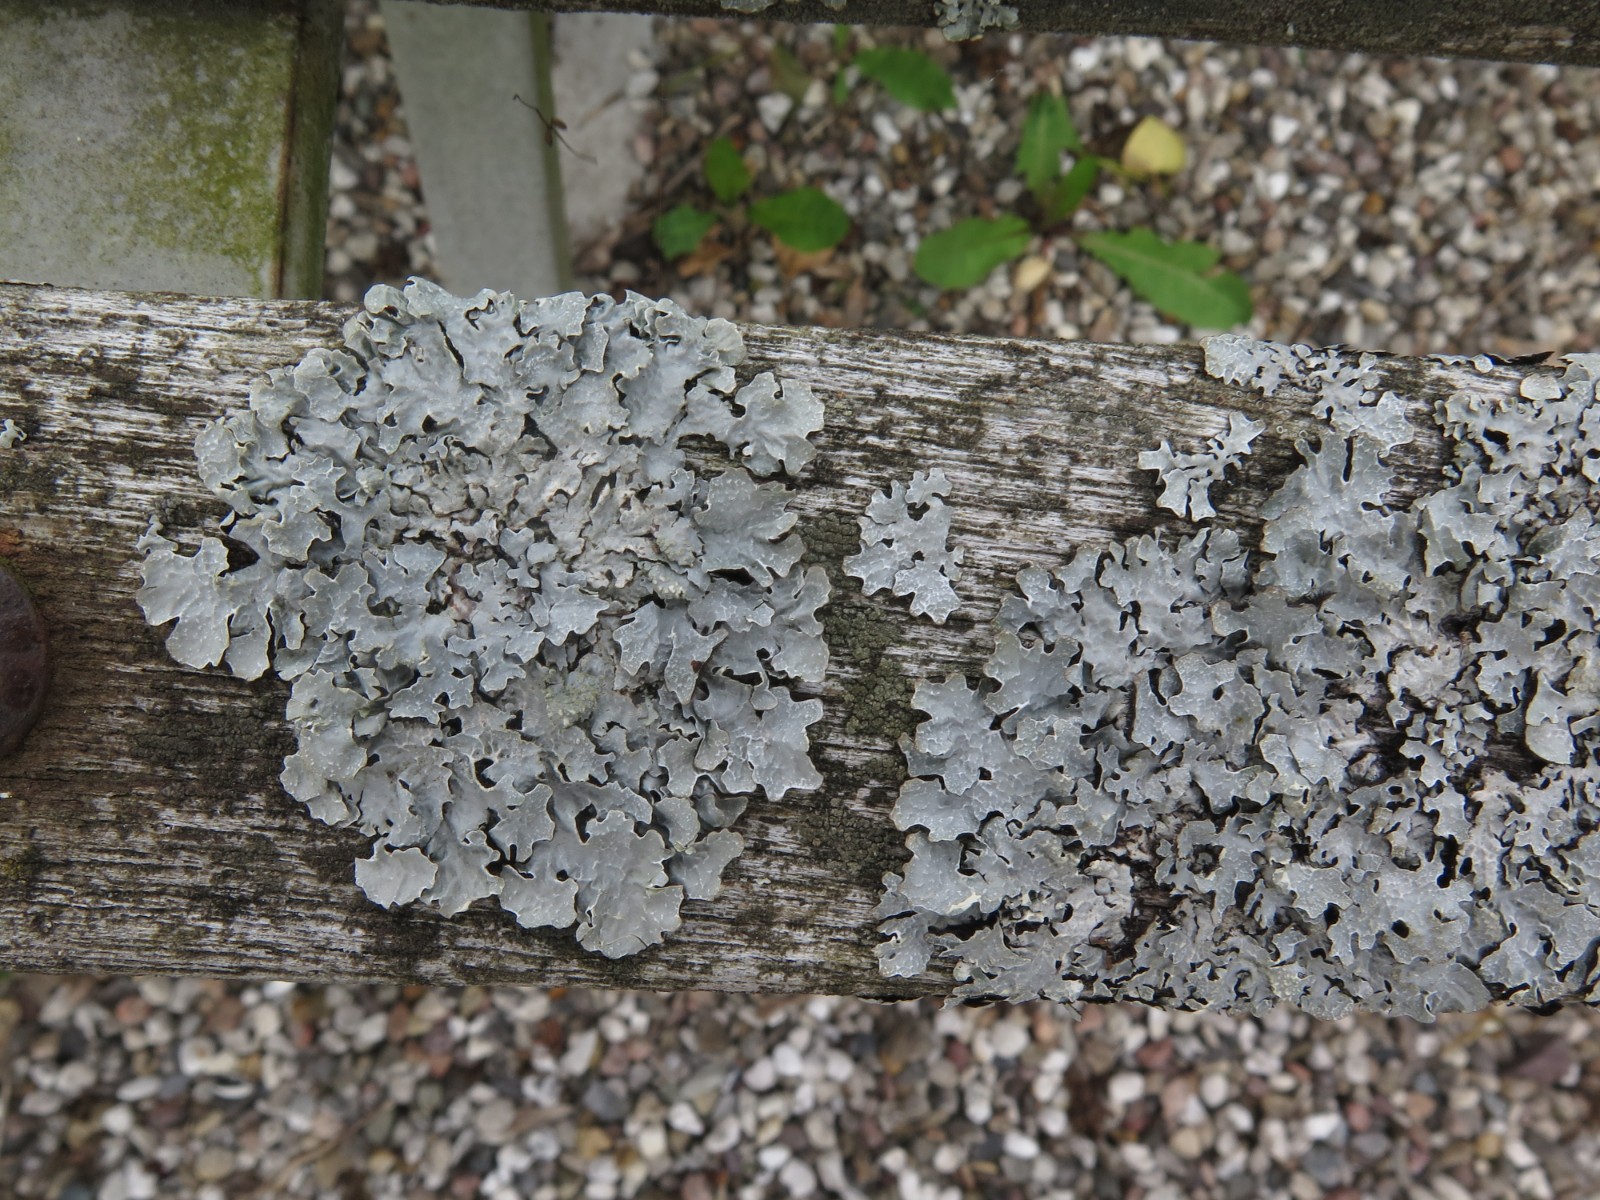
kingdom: Fungi
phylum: Ascomycota
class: Lecanoromycetes
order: Lecanorales
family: Parmeliaceae
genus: Parmelia
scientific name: Parmelia sulcata
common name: rynket skållav
